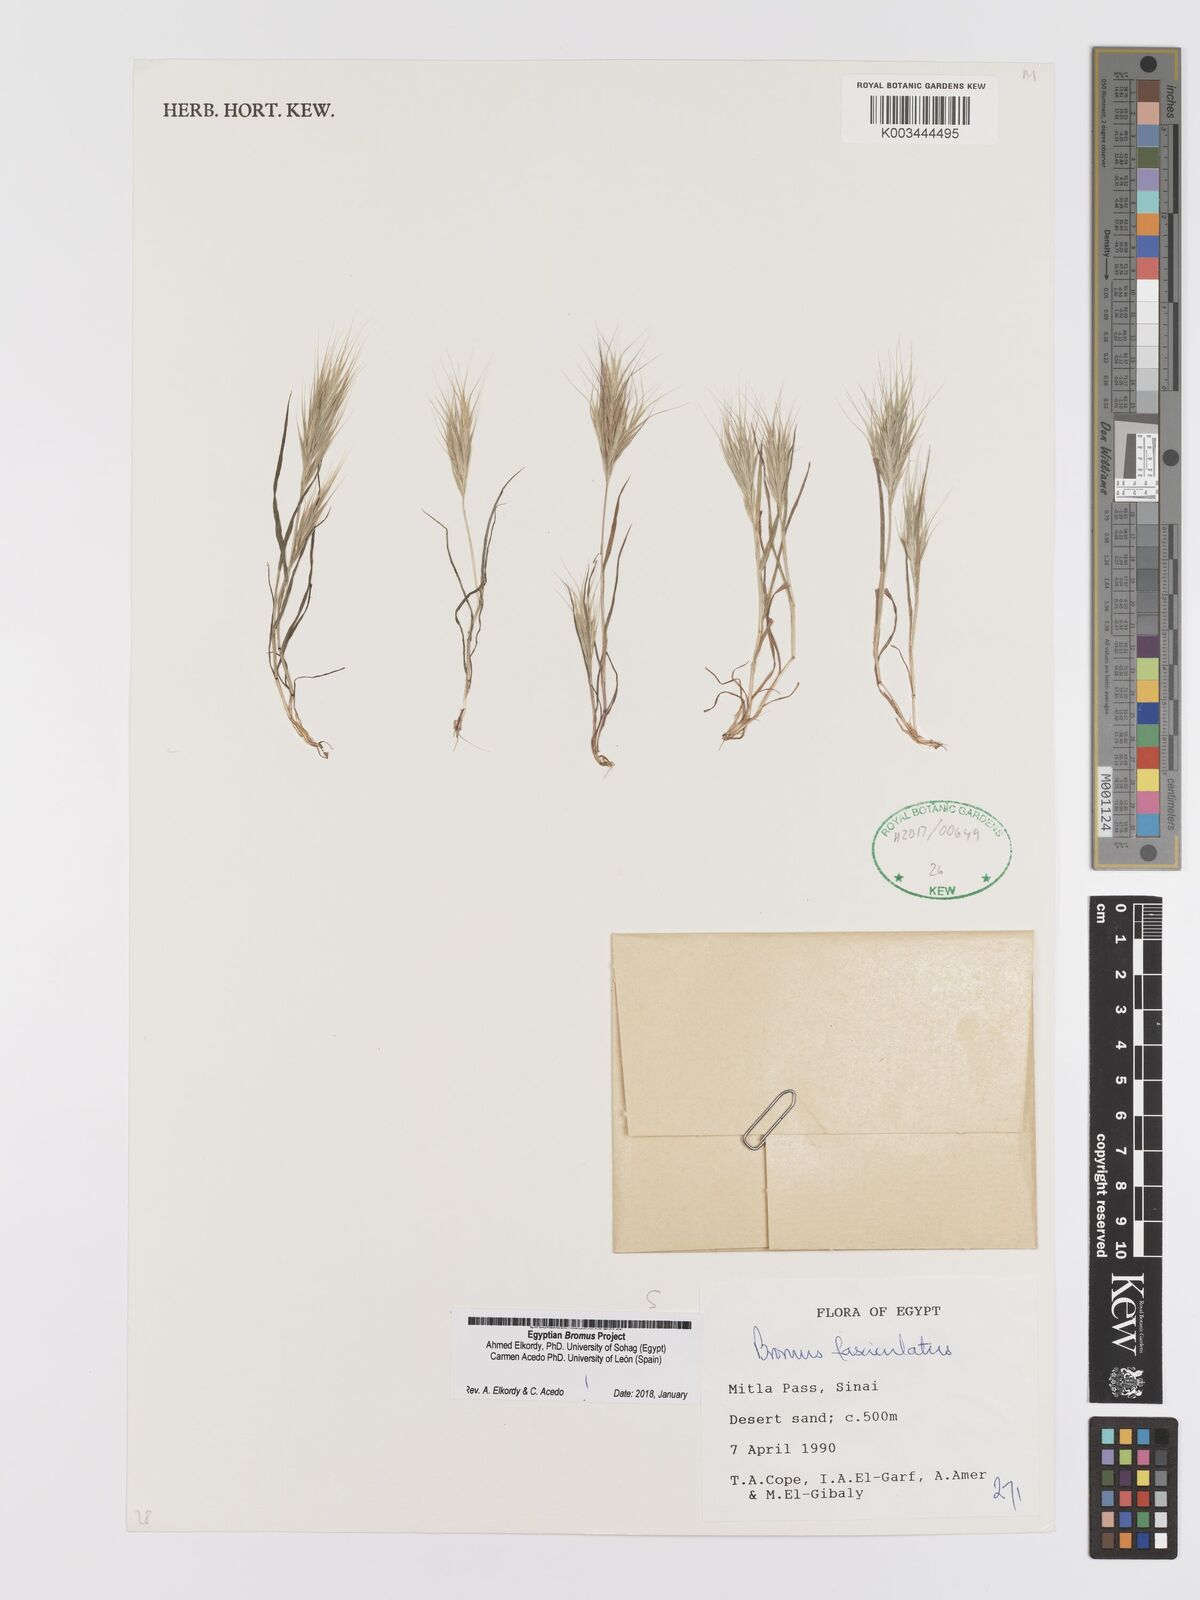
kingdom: Plantae
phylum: Tracheophyta
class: Liliopsida
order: Poales
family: Poaceae
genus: Bromus
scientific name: Bromus fasciculatus
